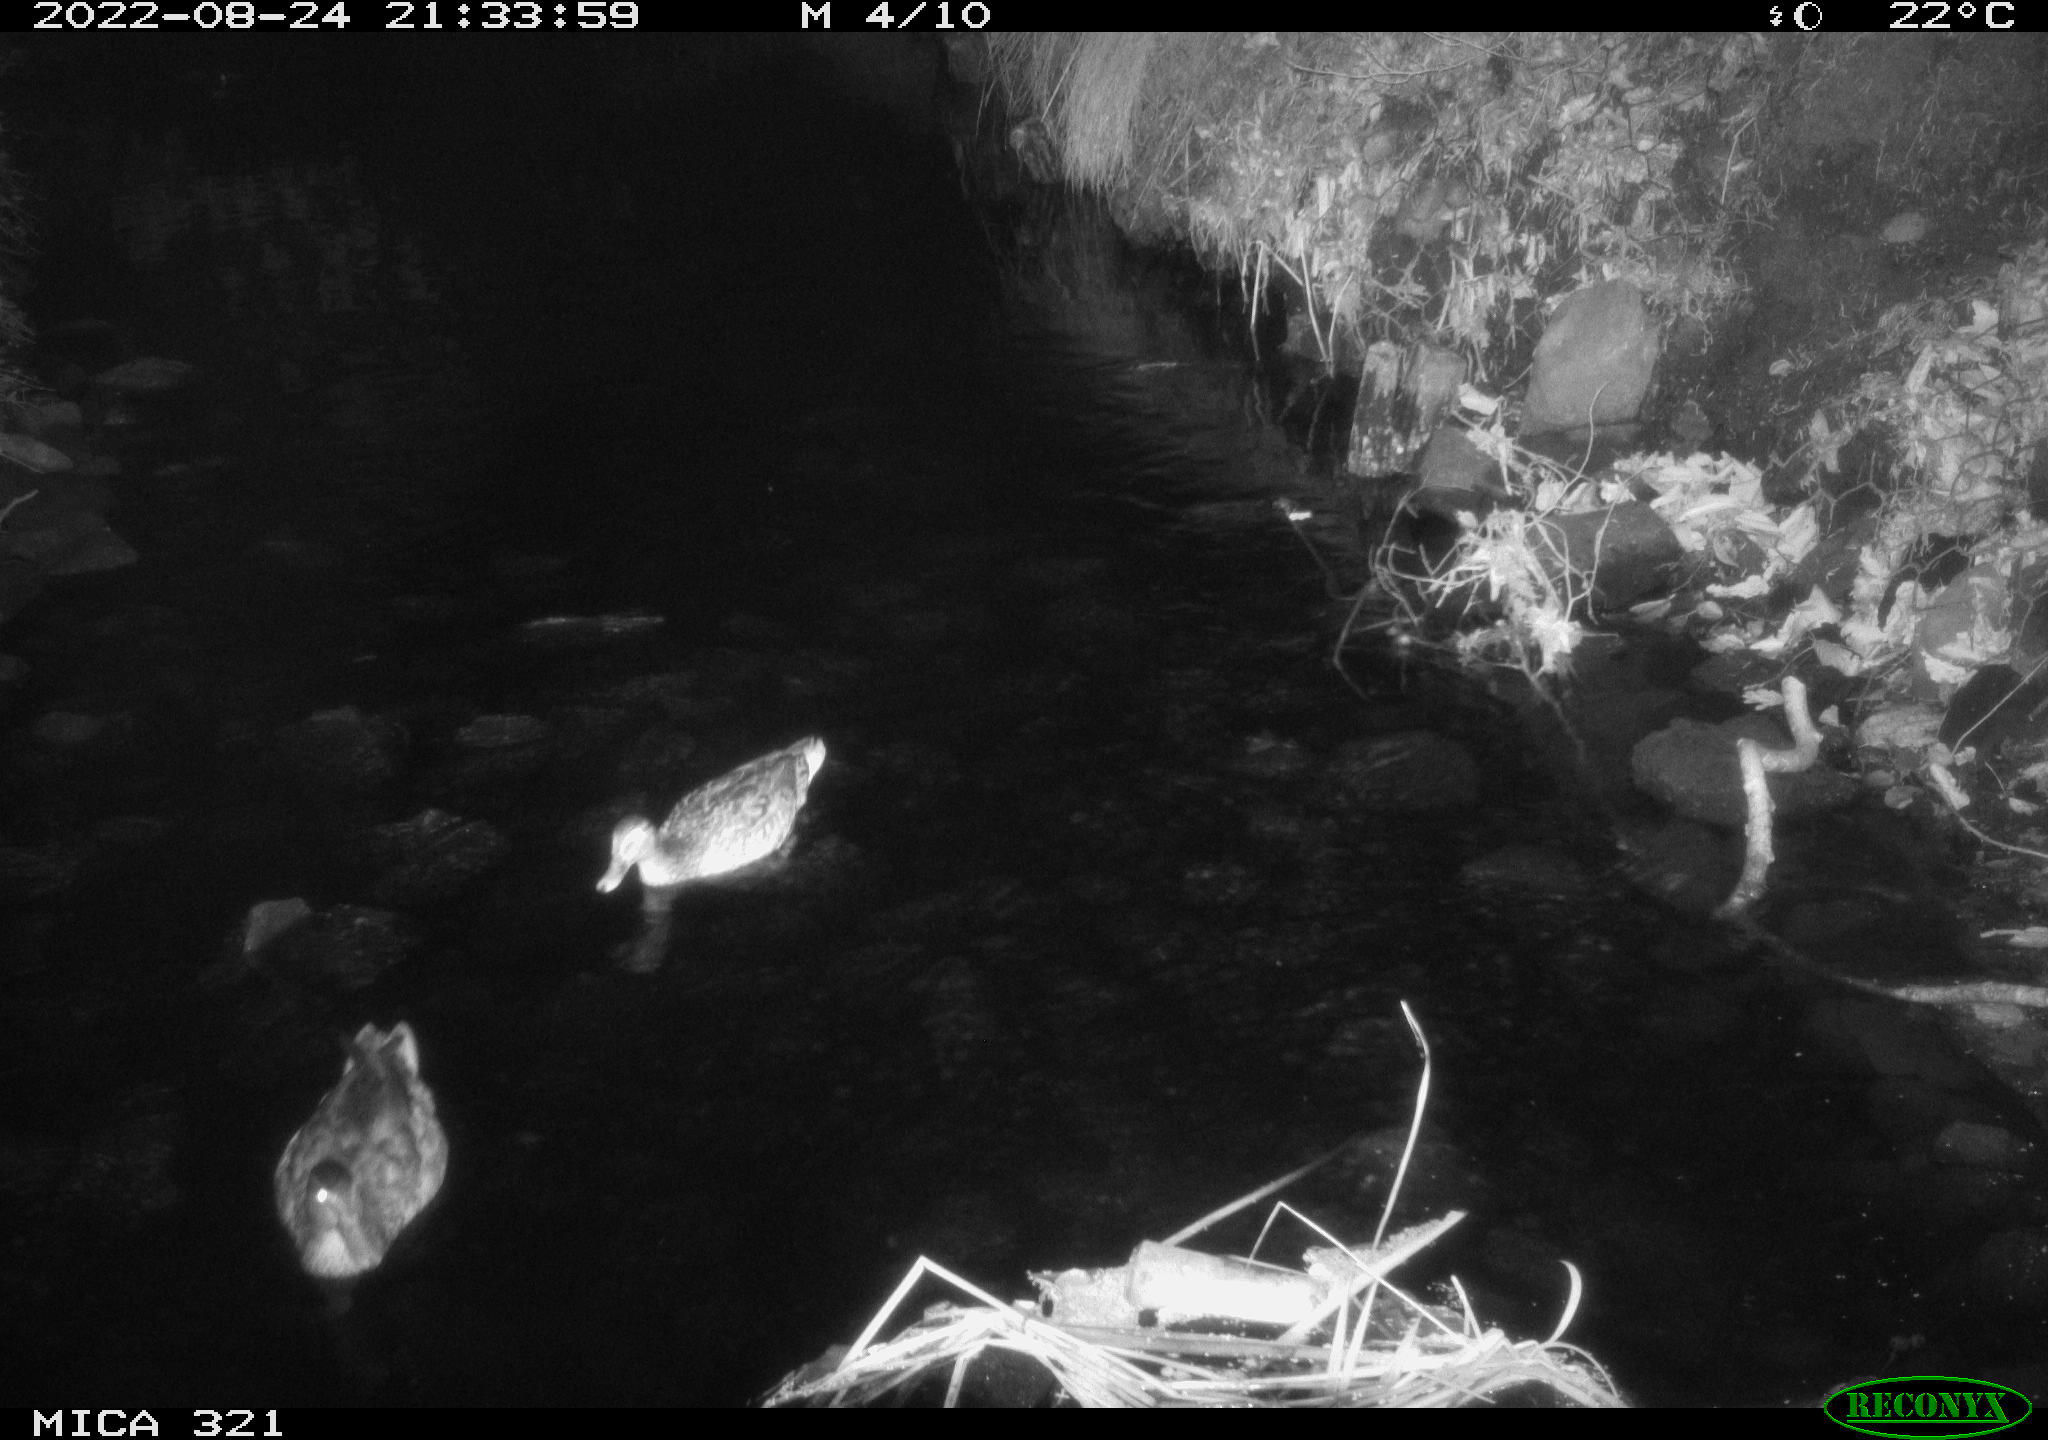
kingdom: Animalia
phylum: Chordata
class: Aves
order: Anseriformes
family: Anatidae
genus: Anas
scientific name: Anas platyrhynchos
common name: Mallard
